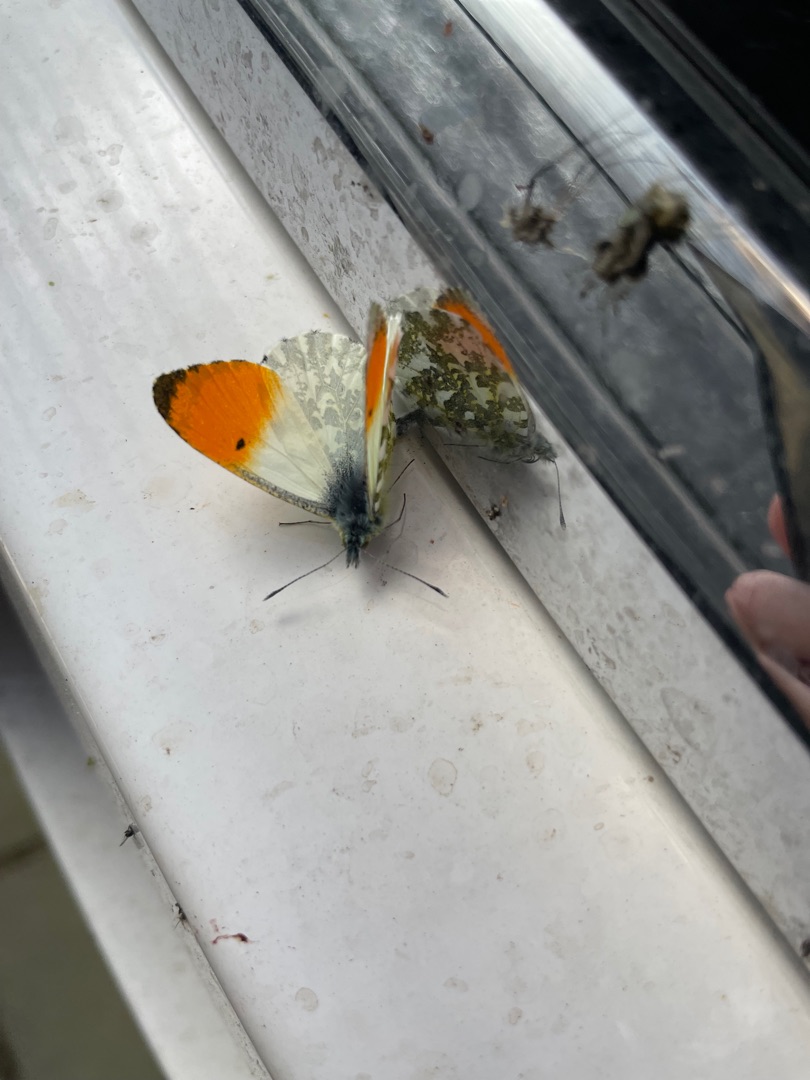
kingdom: Animalia
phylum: Arthropoda
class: Insecta
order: Lepidoptera
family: Pieridae
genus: Anthocharis
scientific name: Anthocharis cardamines
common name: Aurora
